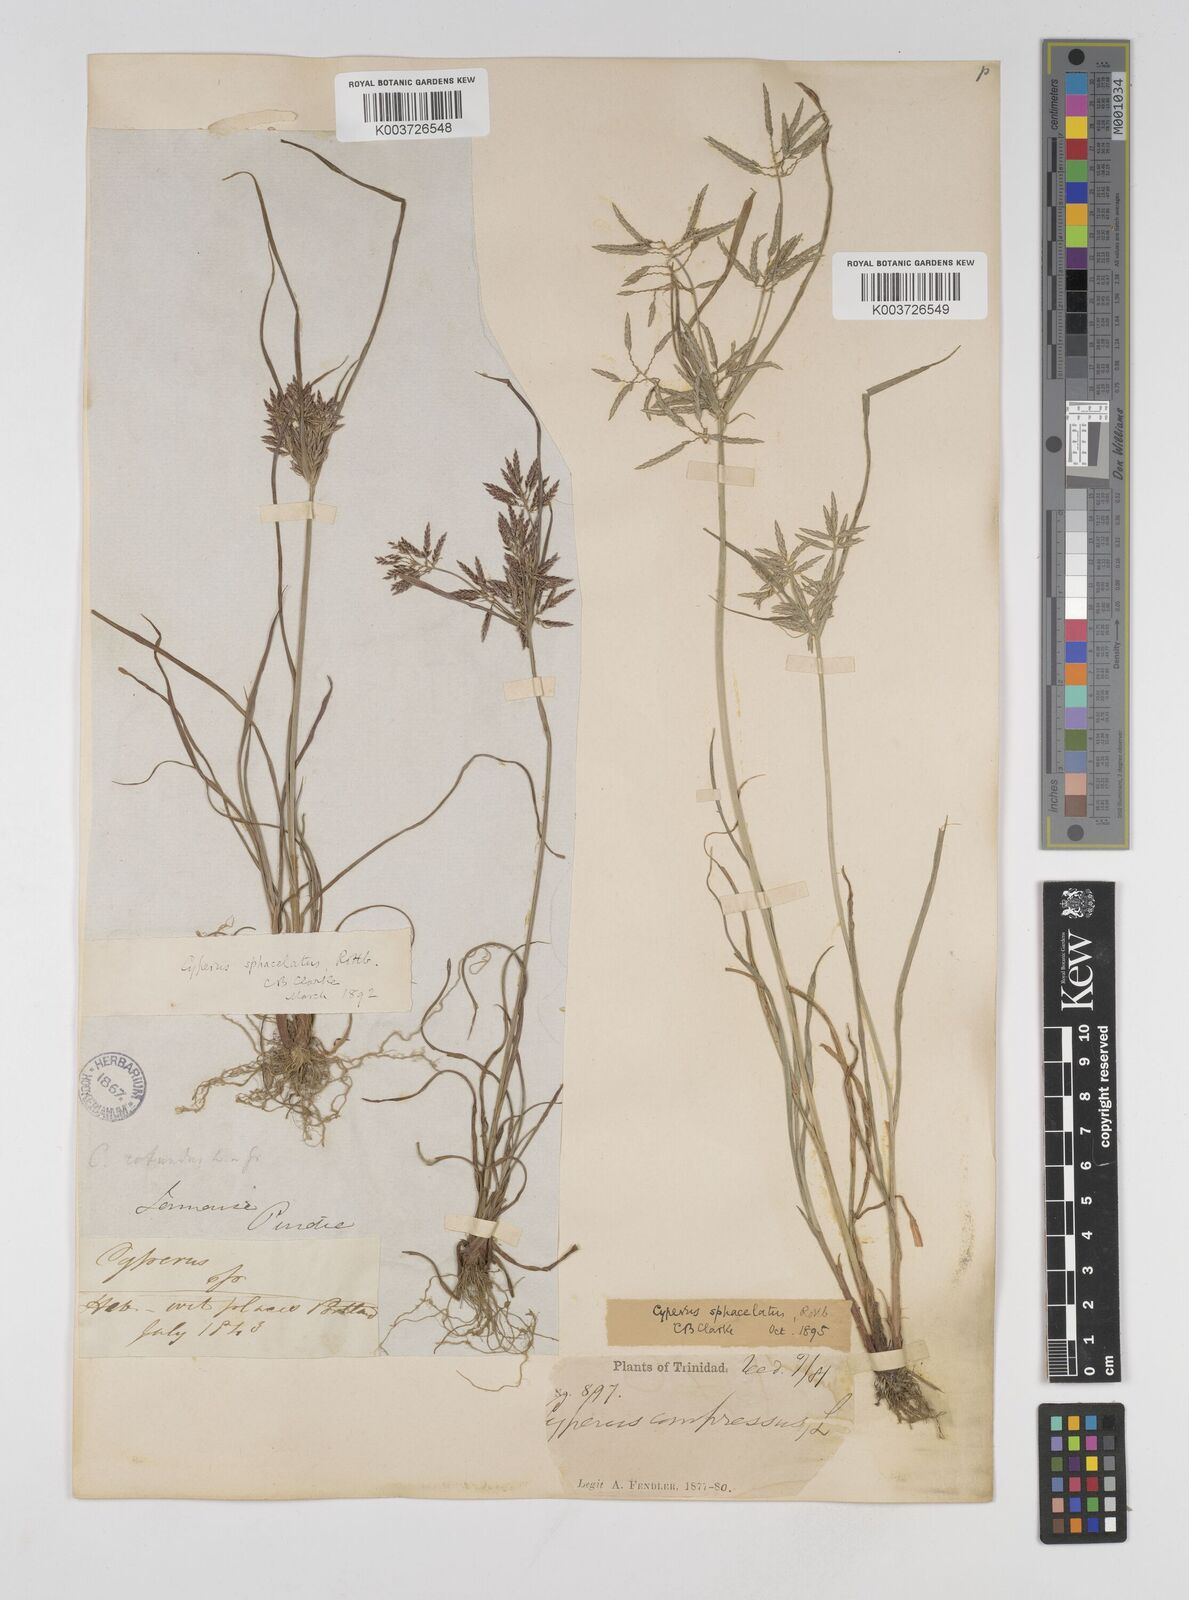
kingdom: Plantae
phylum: Tracheophyta
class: Liliopsida
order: Poales
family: Cyperaceae
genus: Cyperus
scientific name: Cyperus sphacelatus
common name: Roadside flatsedge
